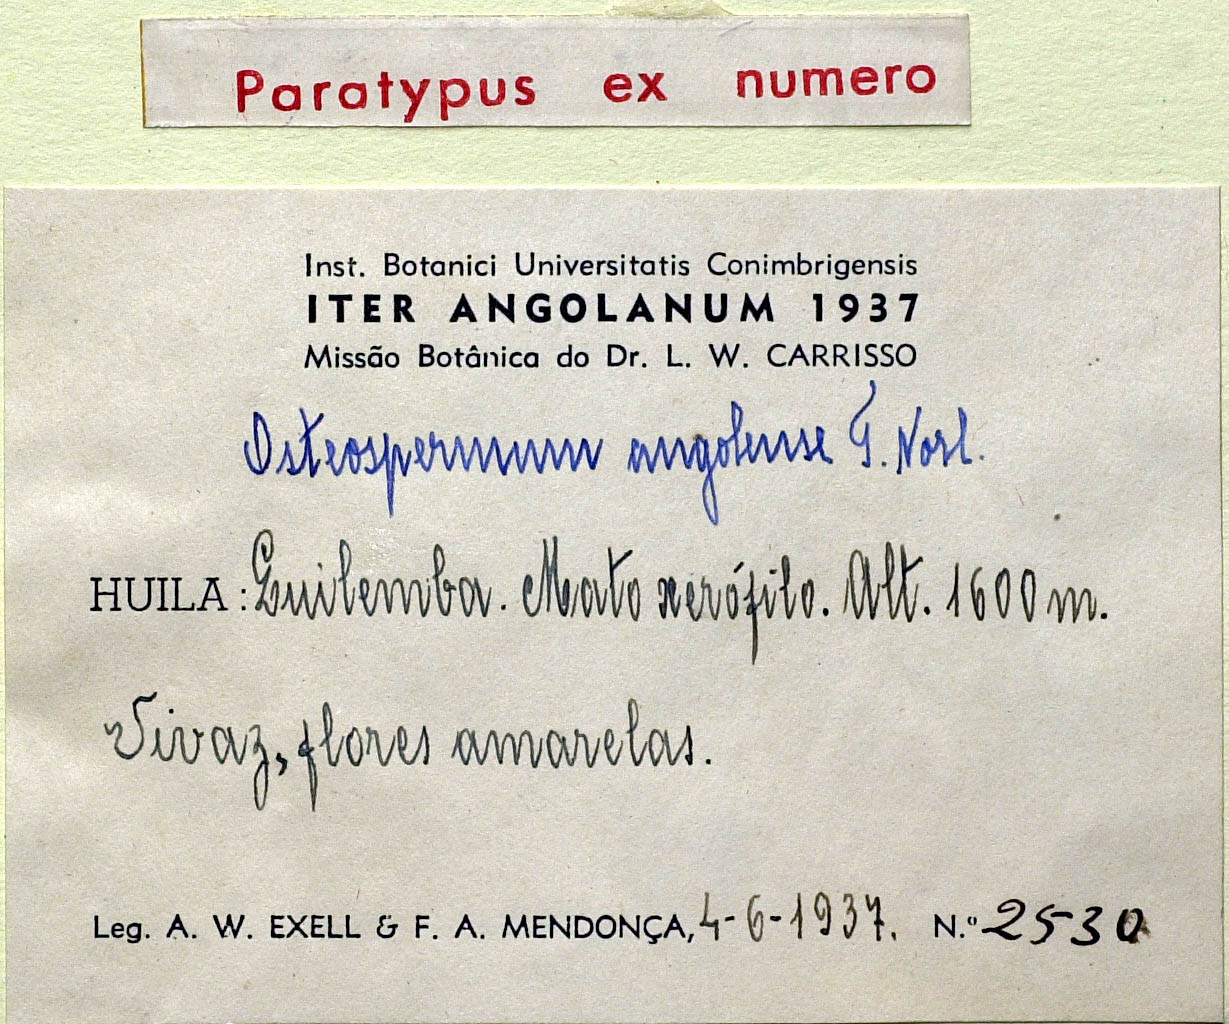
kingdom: Plantae
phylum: Tracheophyta
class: Magnoliopsida
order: Asterales
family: Asteraceae
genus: Osteospermum
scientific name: Osteospermum angolense
